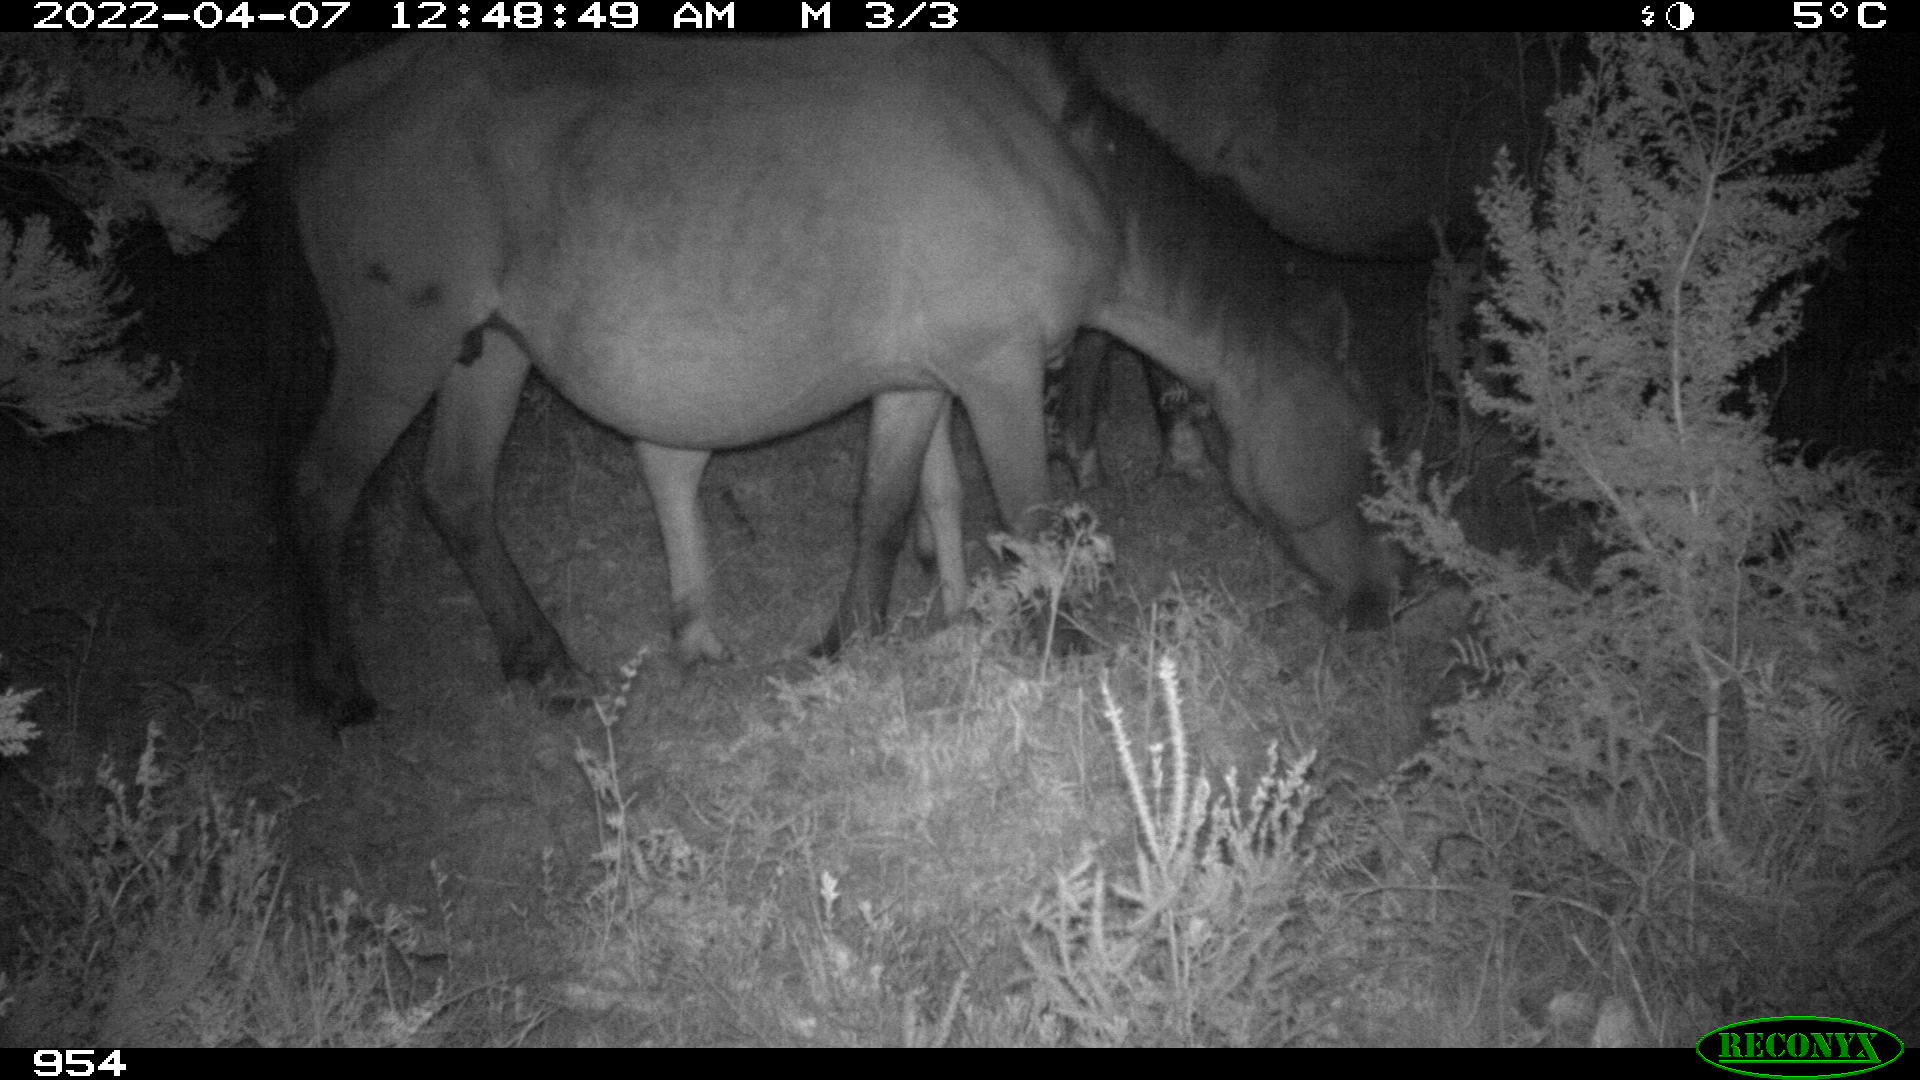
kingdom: Animalia
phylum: Chordata
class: Mammalia
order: Perissodactyla
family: Equidae
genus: Equus
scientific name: Equus caballus
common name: Horse
